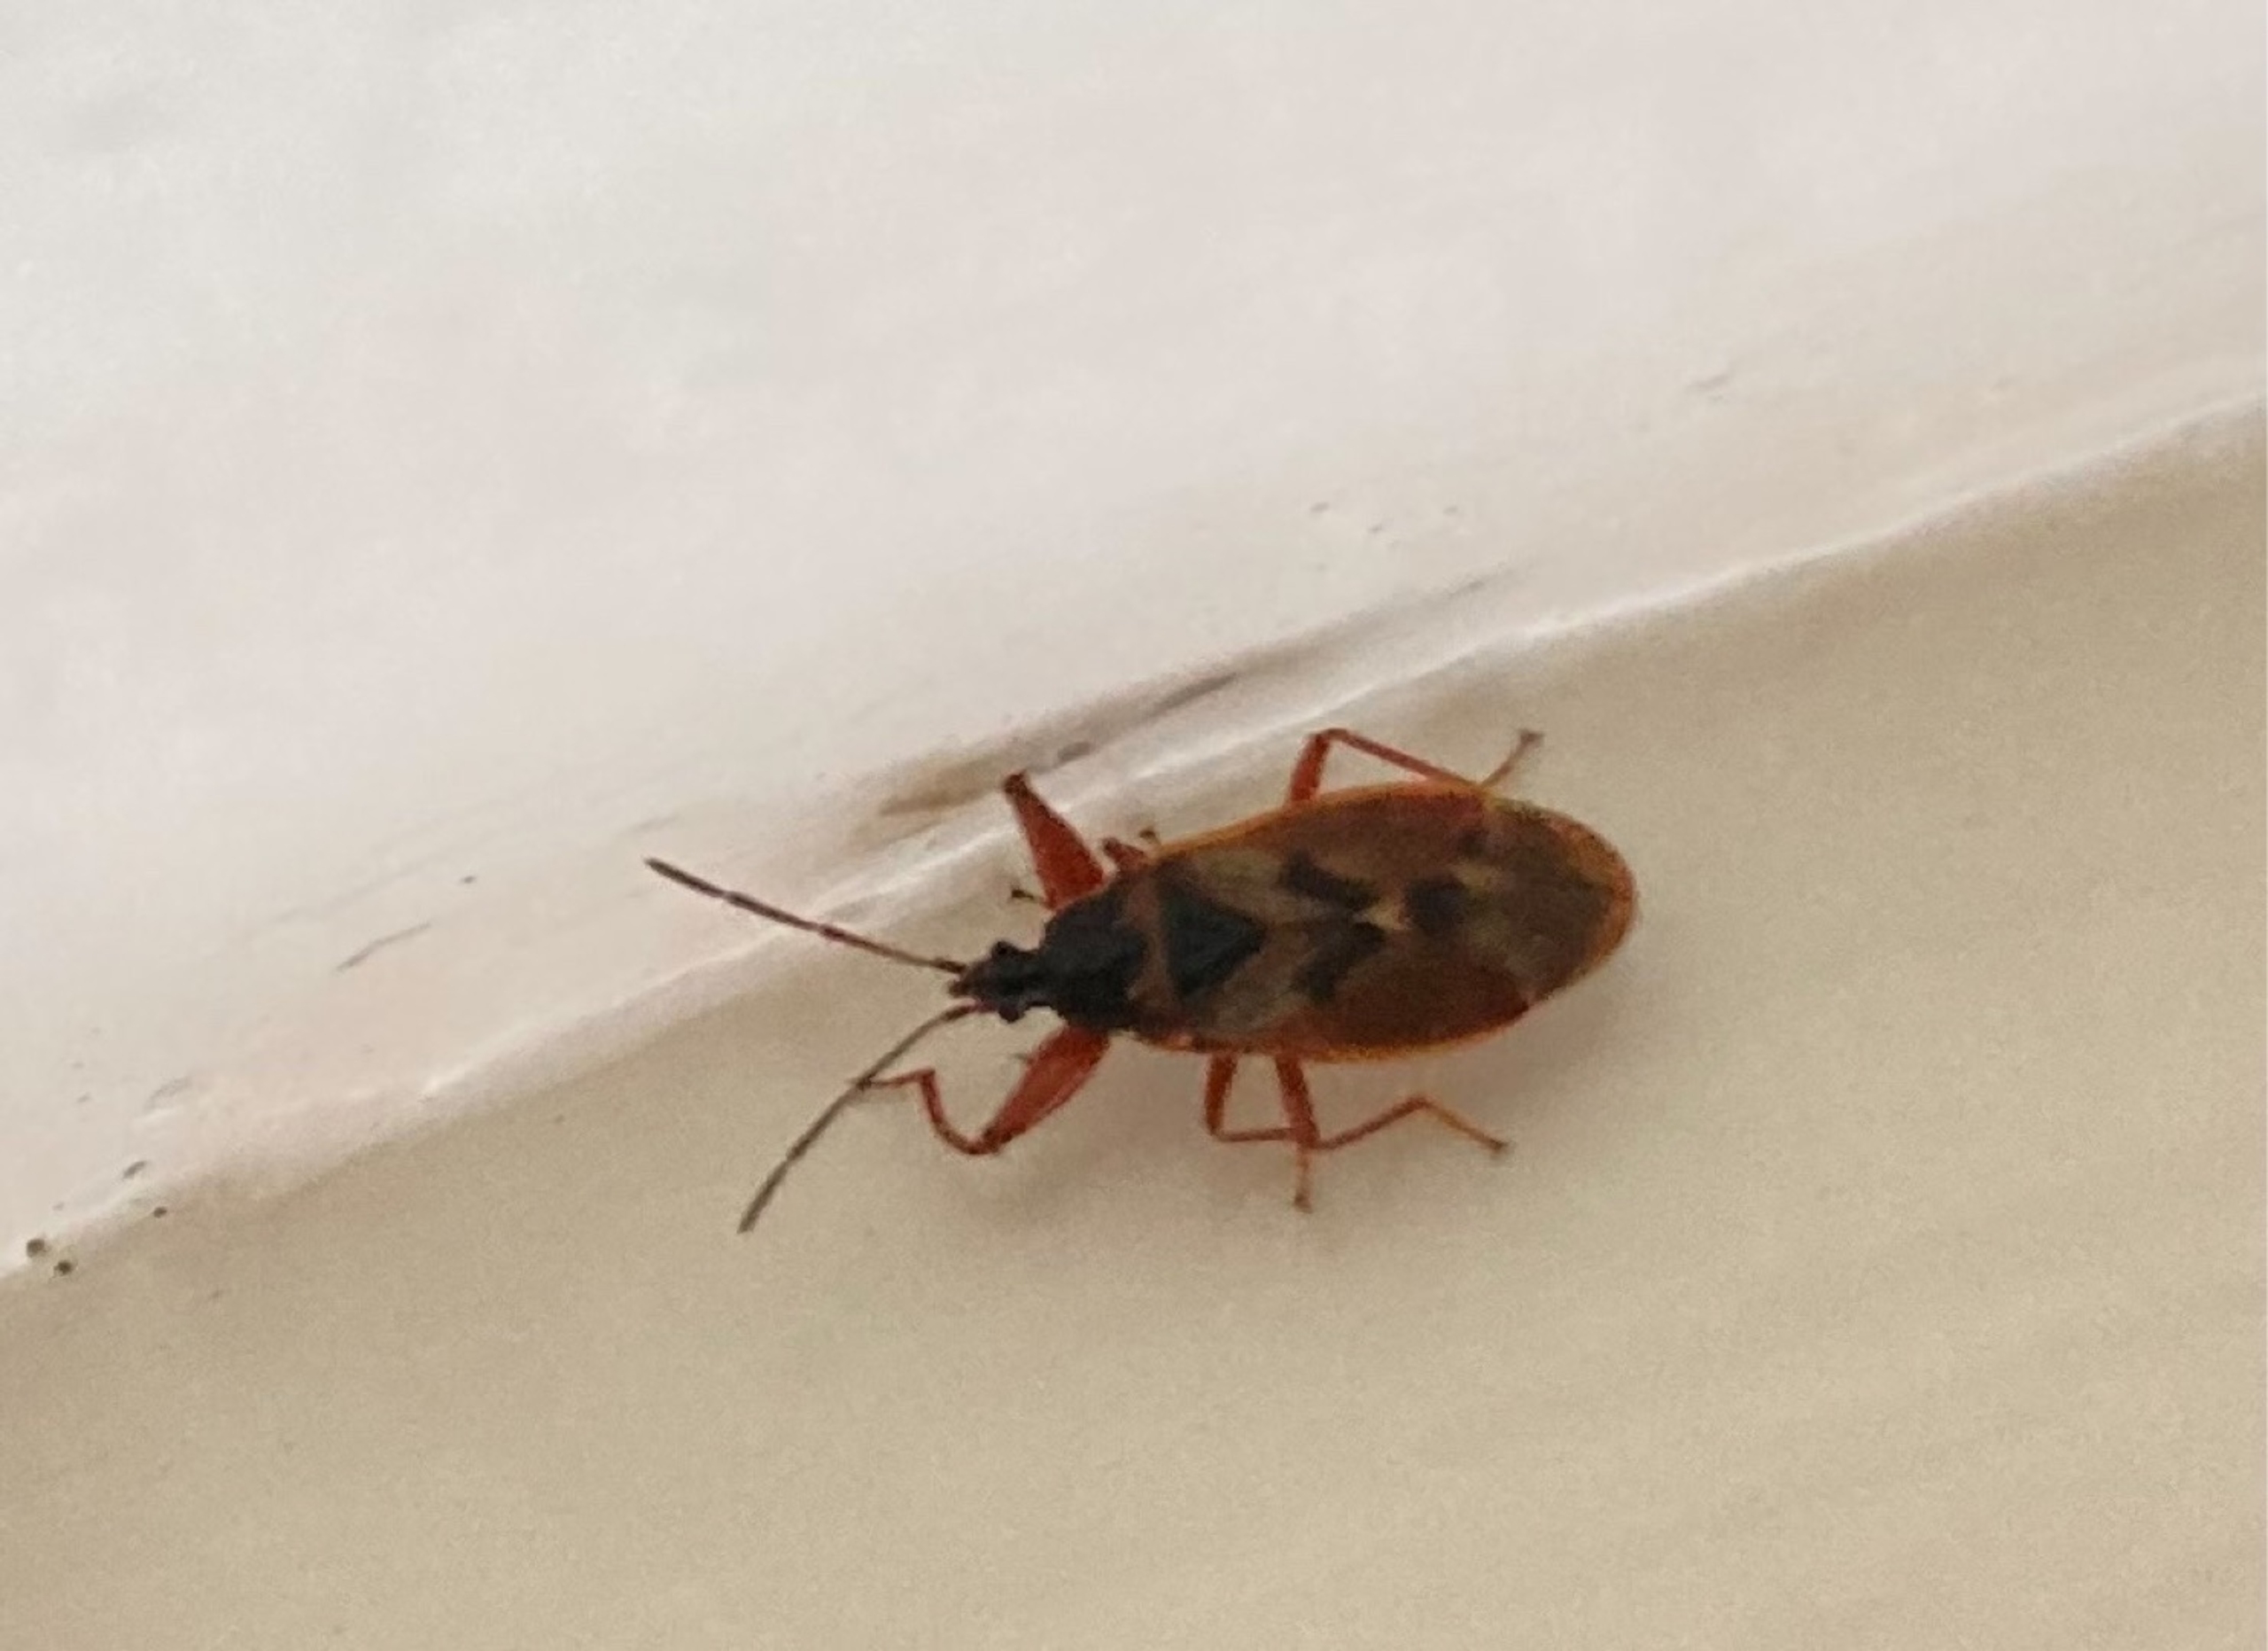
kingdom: Animalia
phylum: Arthropoda
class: Insecta
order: Hemiptera
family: Rhyparochromidae
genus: Gastrodes
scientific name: Gastrodes abietum
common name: Grankogletæge
